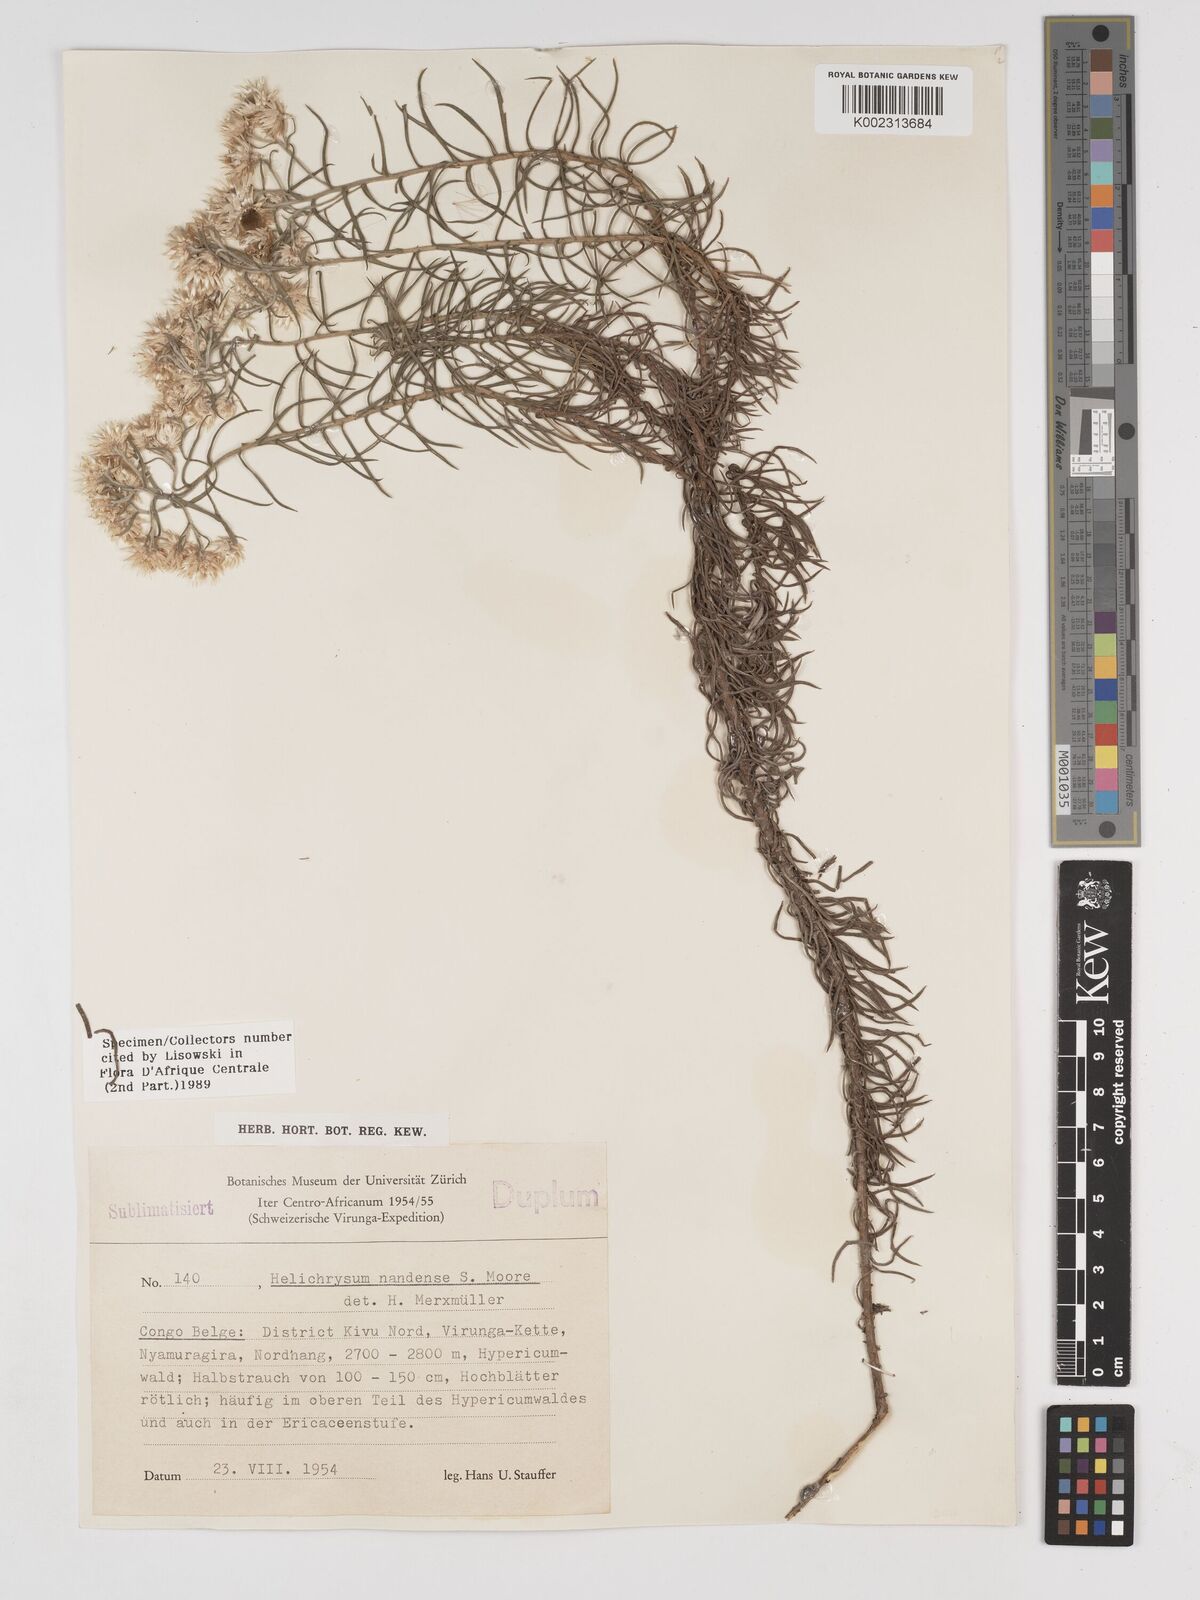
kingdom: Plantae
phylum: Tracheophyta
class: Magnoliopsida
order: Asterales
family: Asteraceae
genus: Helichrysum
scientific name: Helichrysum argyranthum
